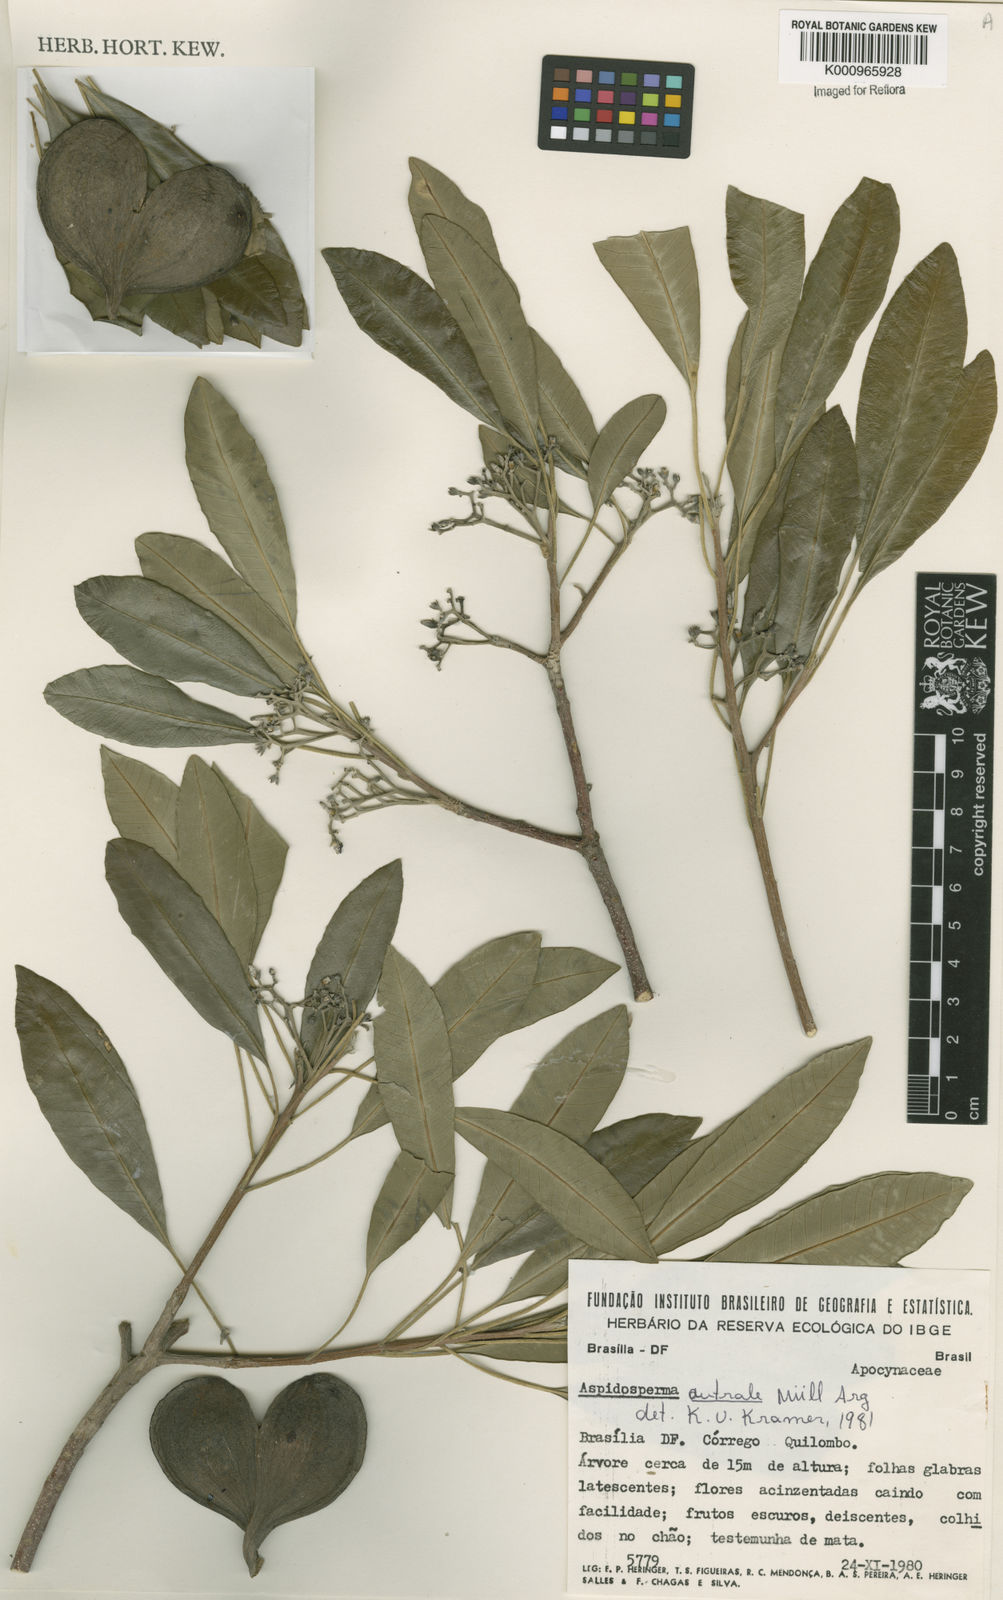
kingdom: Plantae
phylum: Tracheophyta
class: Magnoliopsida
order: Gentianales
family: Apocynaceae
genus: Aspidosperma
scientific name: Aspidosperma
